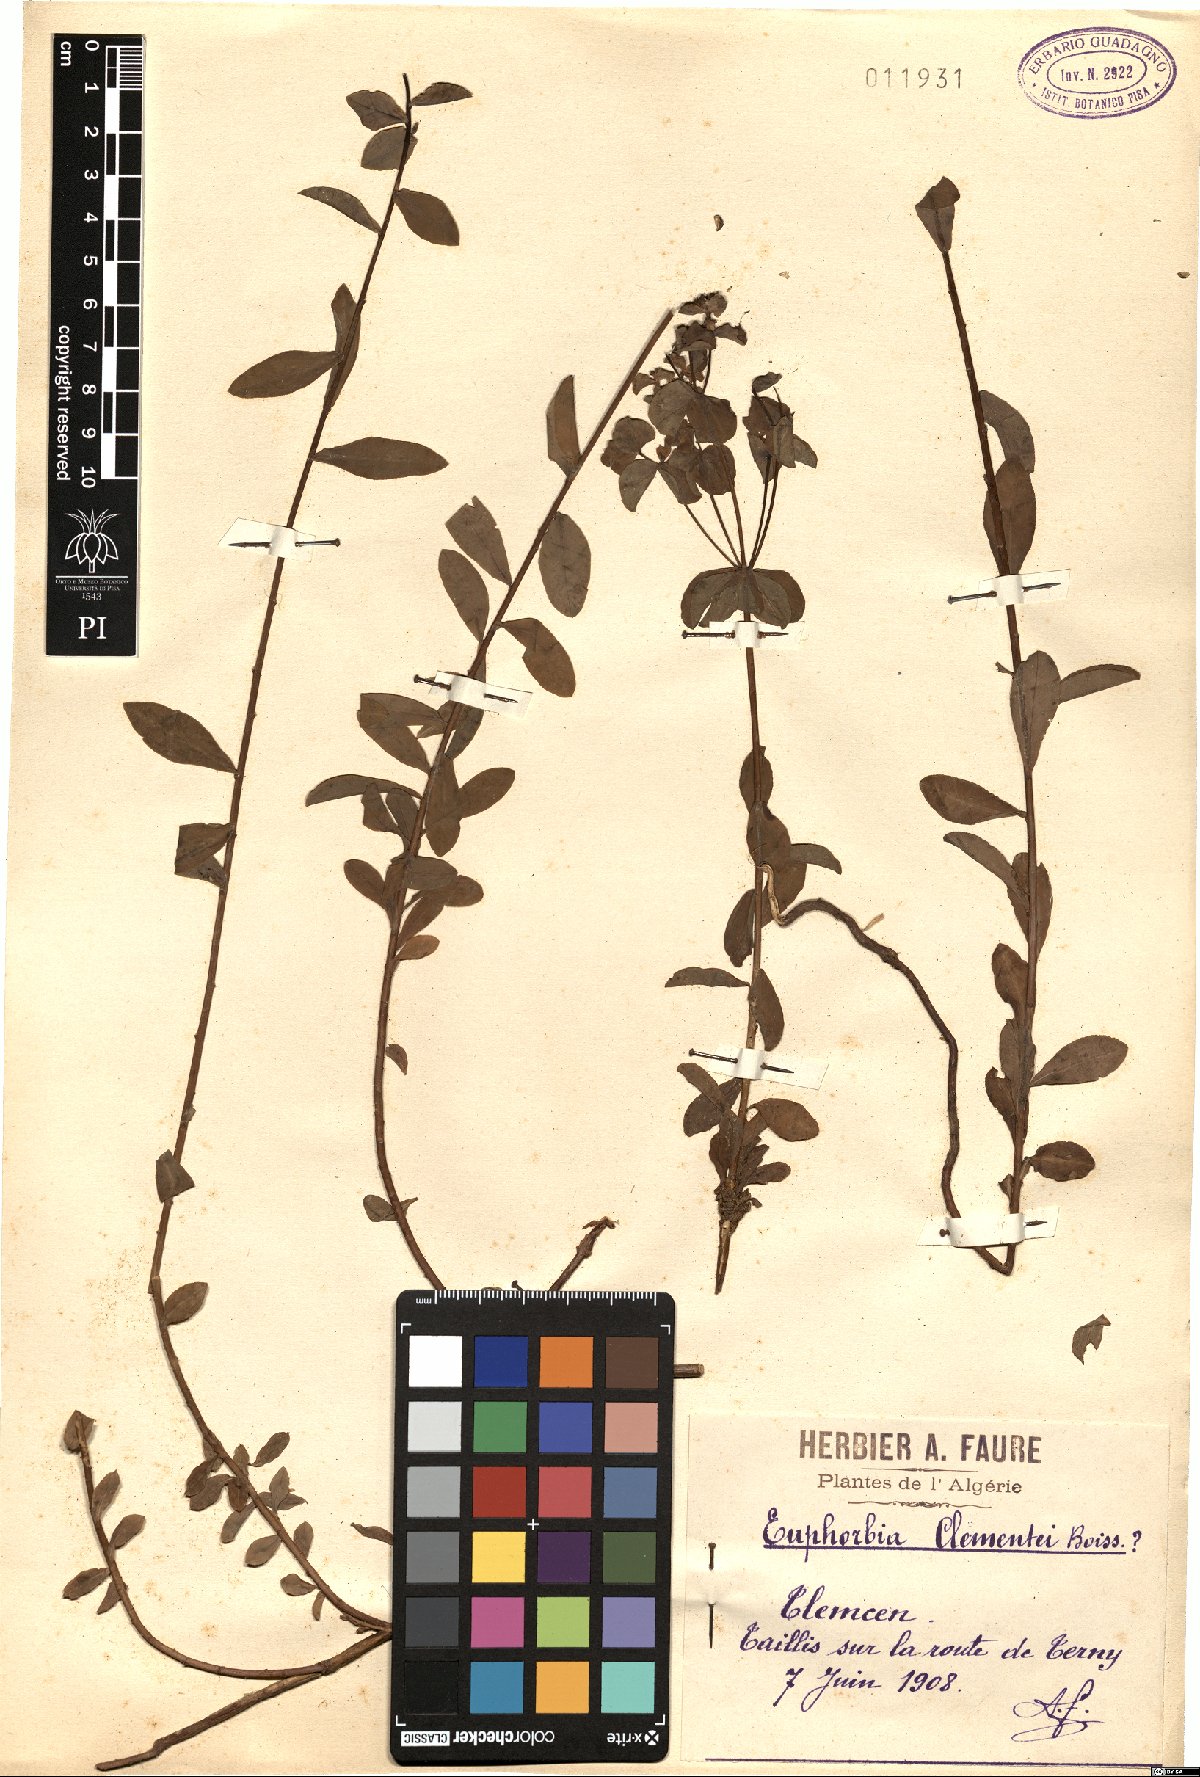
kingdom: Plantae
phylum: Tracheophyta
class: Magnoliopsida
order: Malpighiales
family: Euphorbiaceae
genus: Euphorbia
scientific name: Euphorbia clementei
